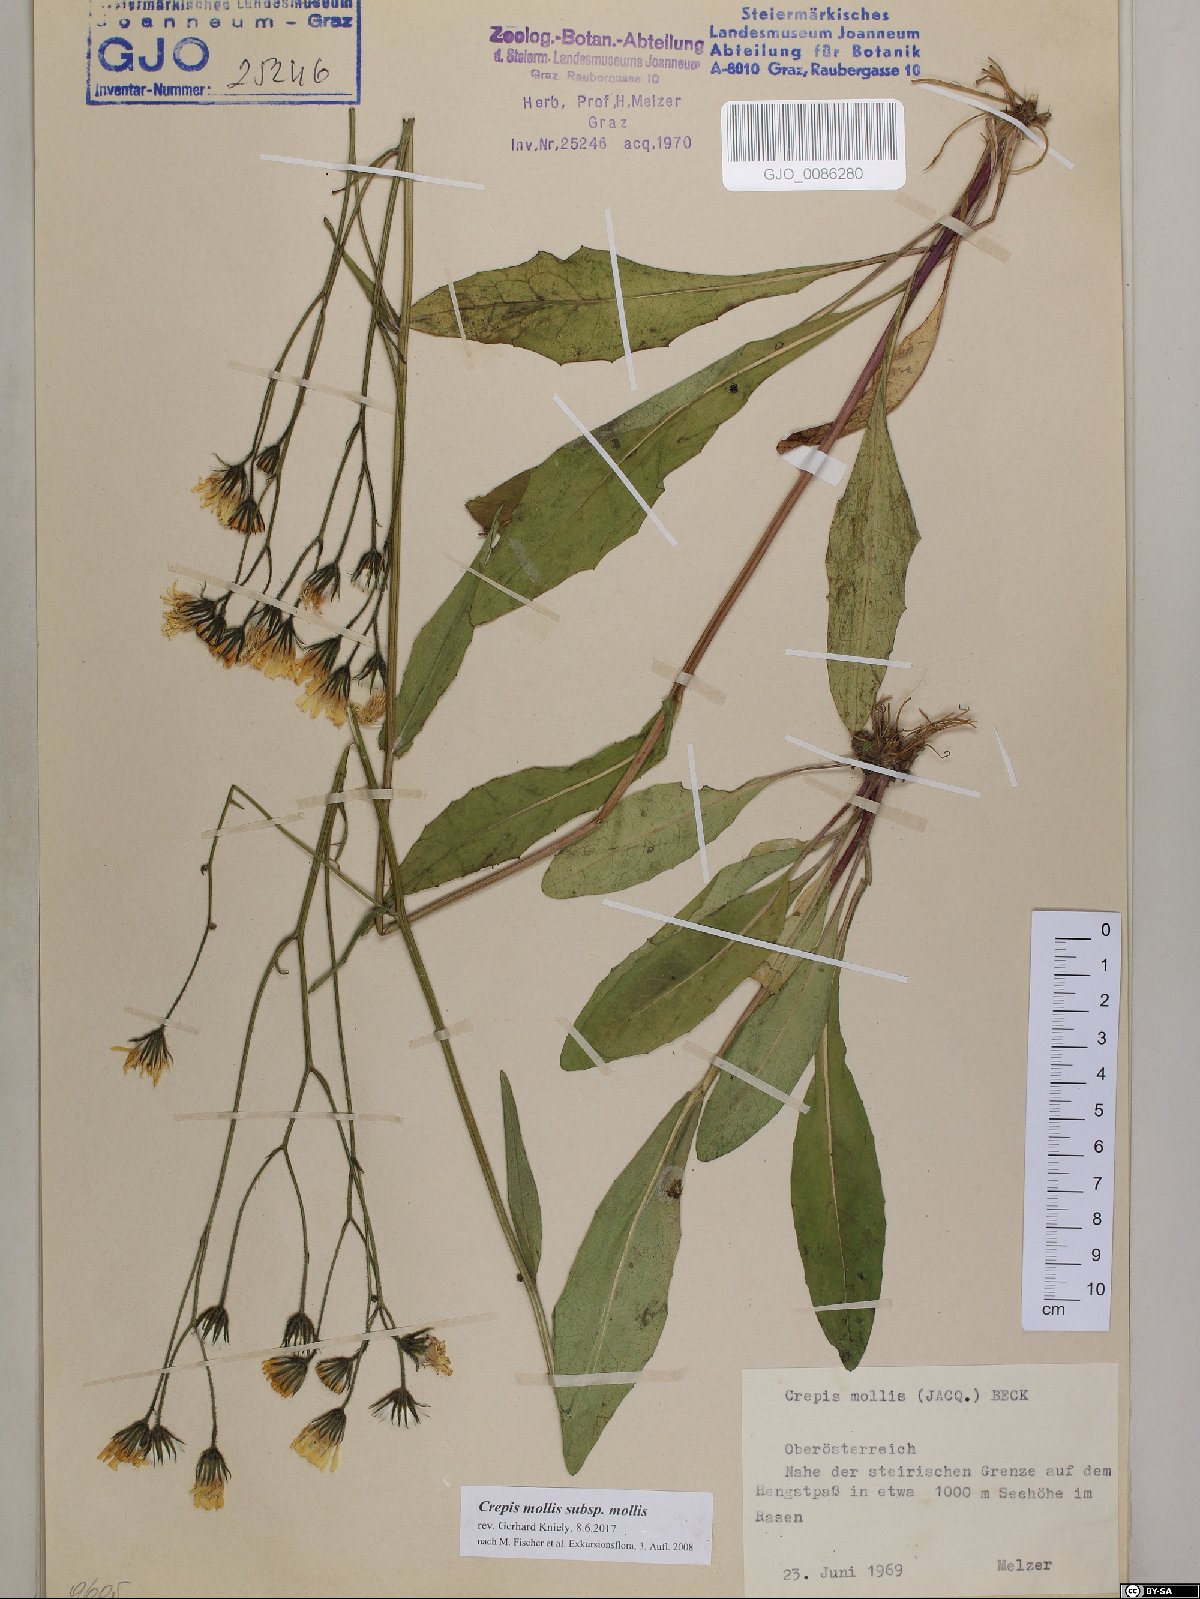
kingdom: Plantae
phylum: Tracheophyta
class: Magnoliopsida
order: Asterales
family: Asteraceae
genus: Crepis
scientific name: Crepis mollis
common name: Northern hawk's-beard
